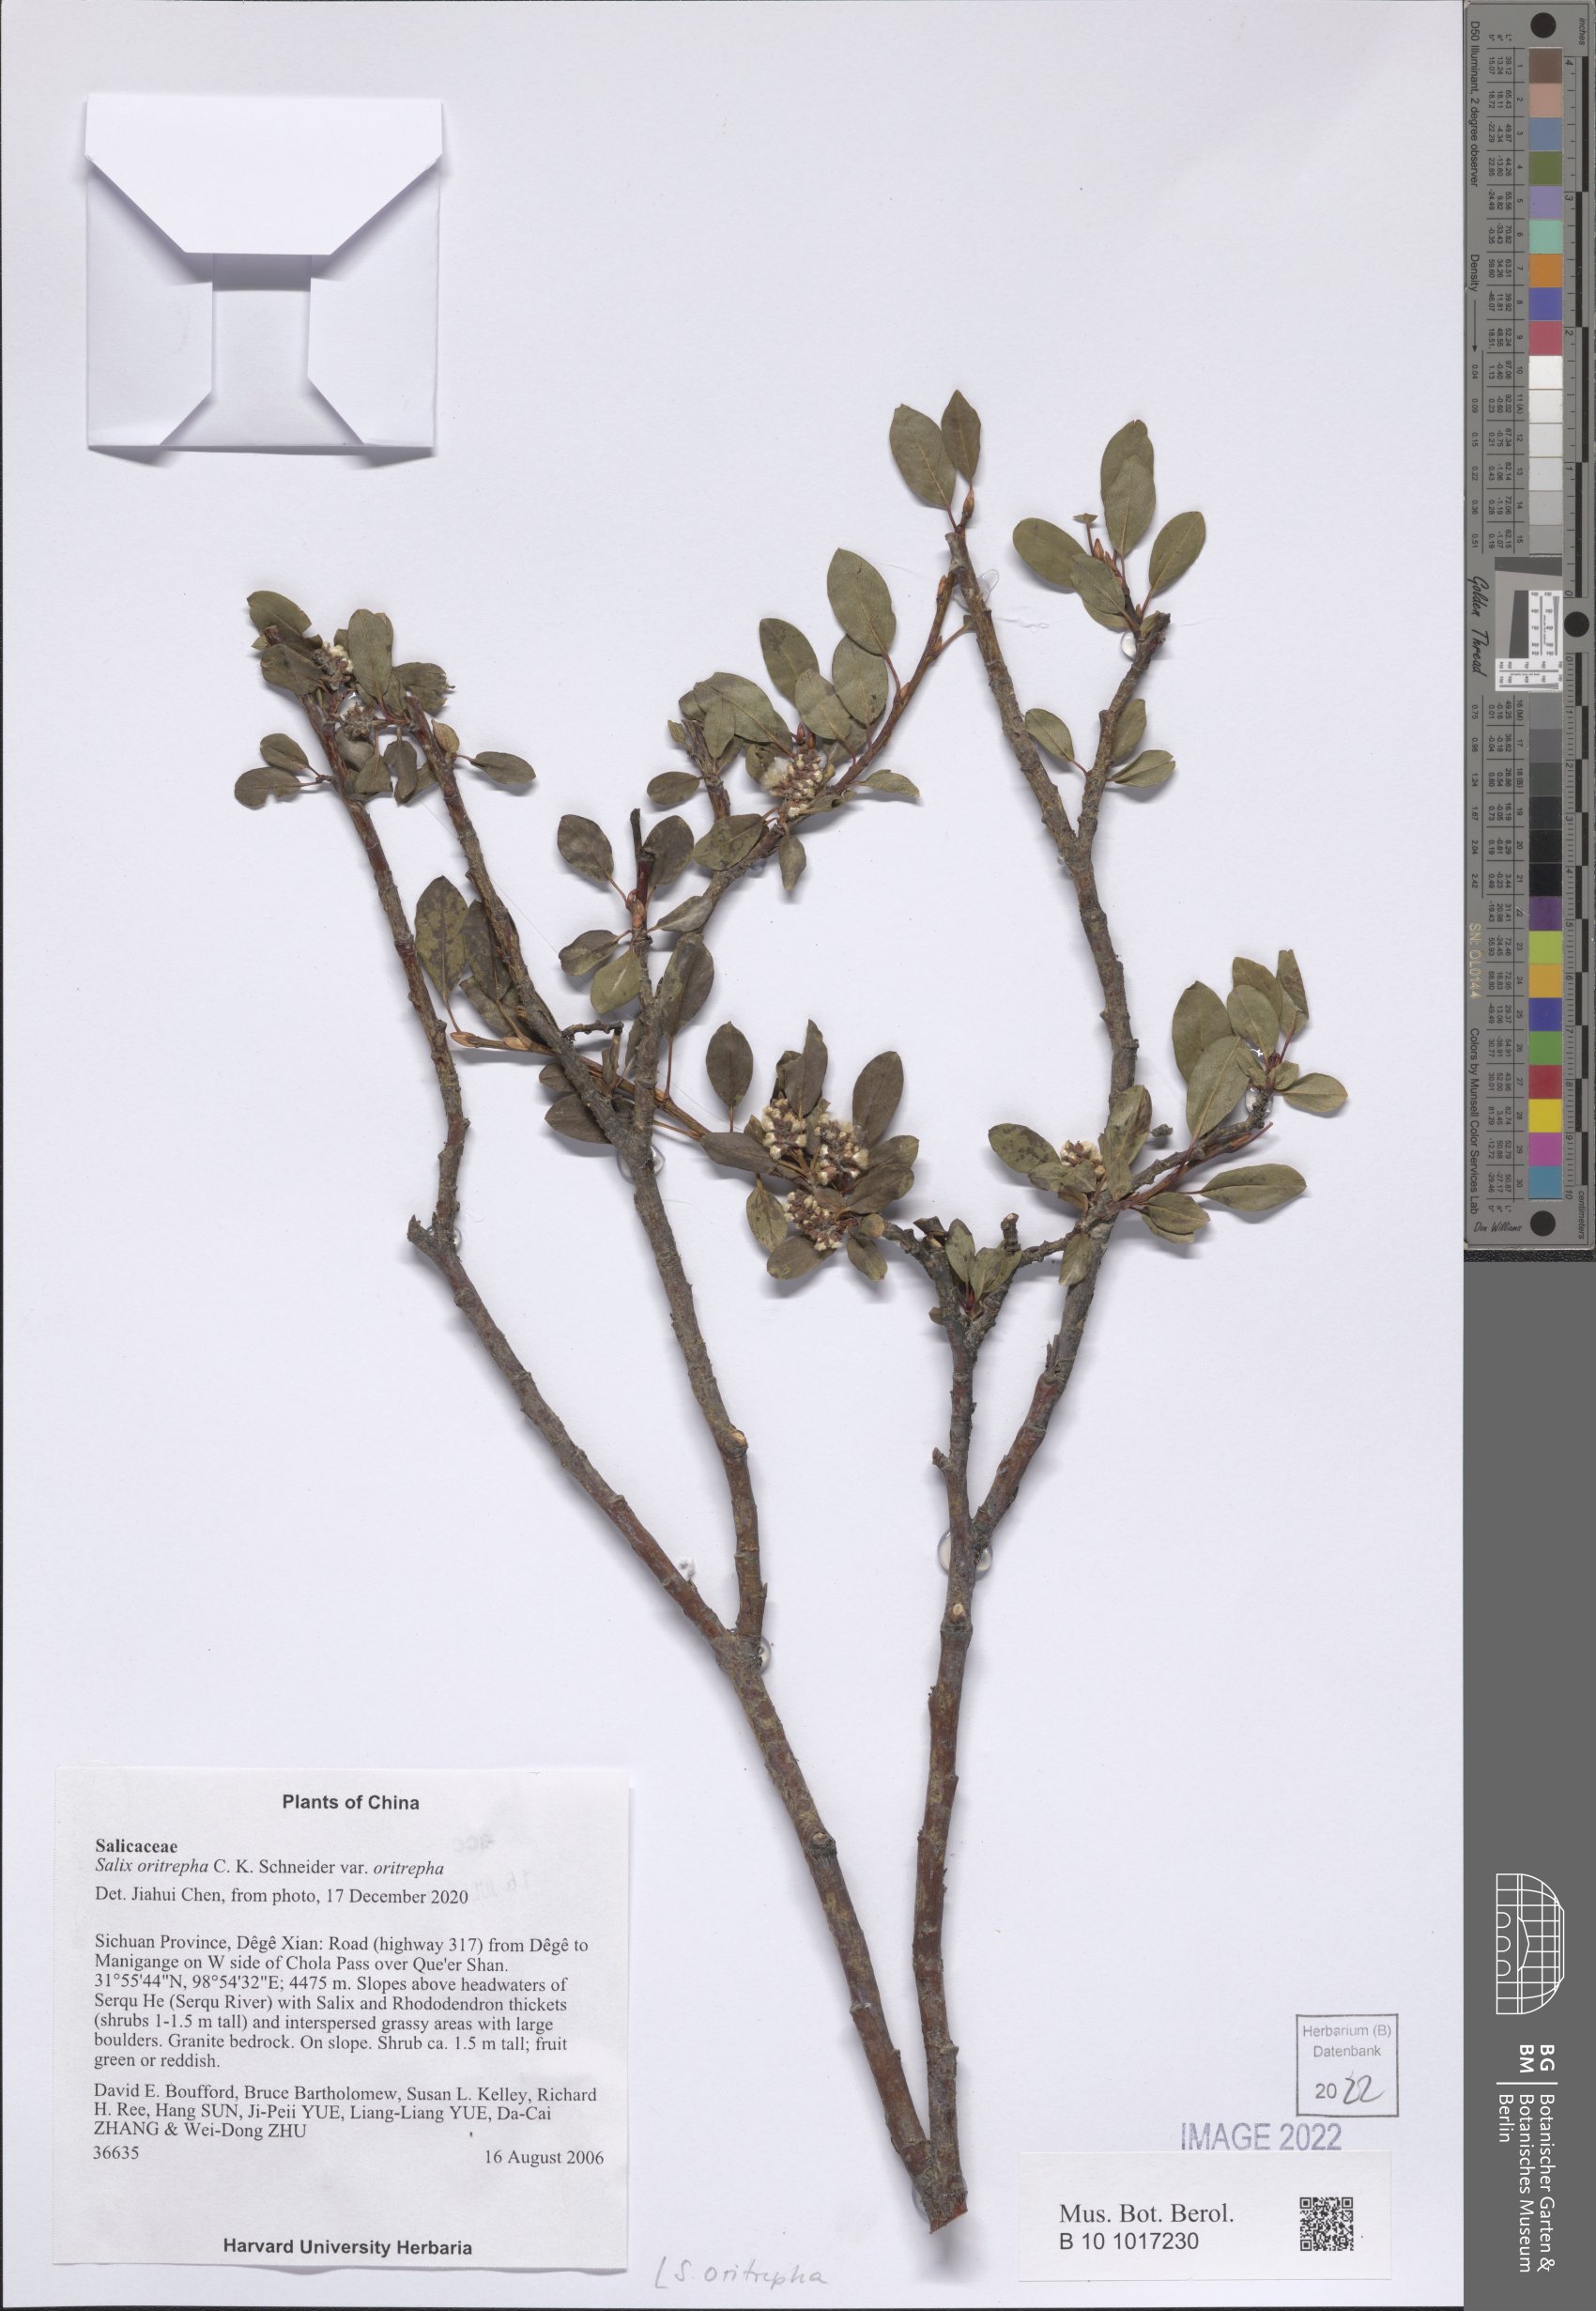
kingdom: Plantae
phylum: Tracheophyta
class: Magnoliopsida
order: Malpighiales
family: Salicaceae
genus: Salix
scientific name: Salix oritrepha
